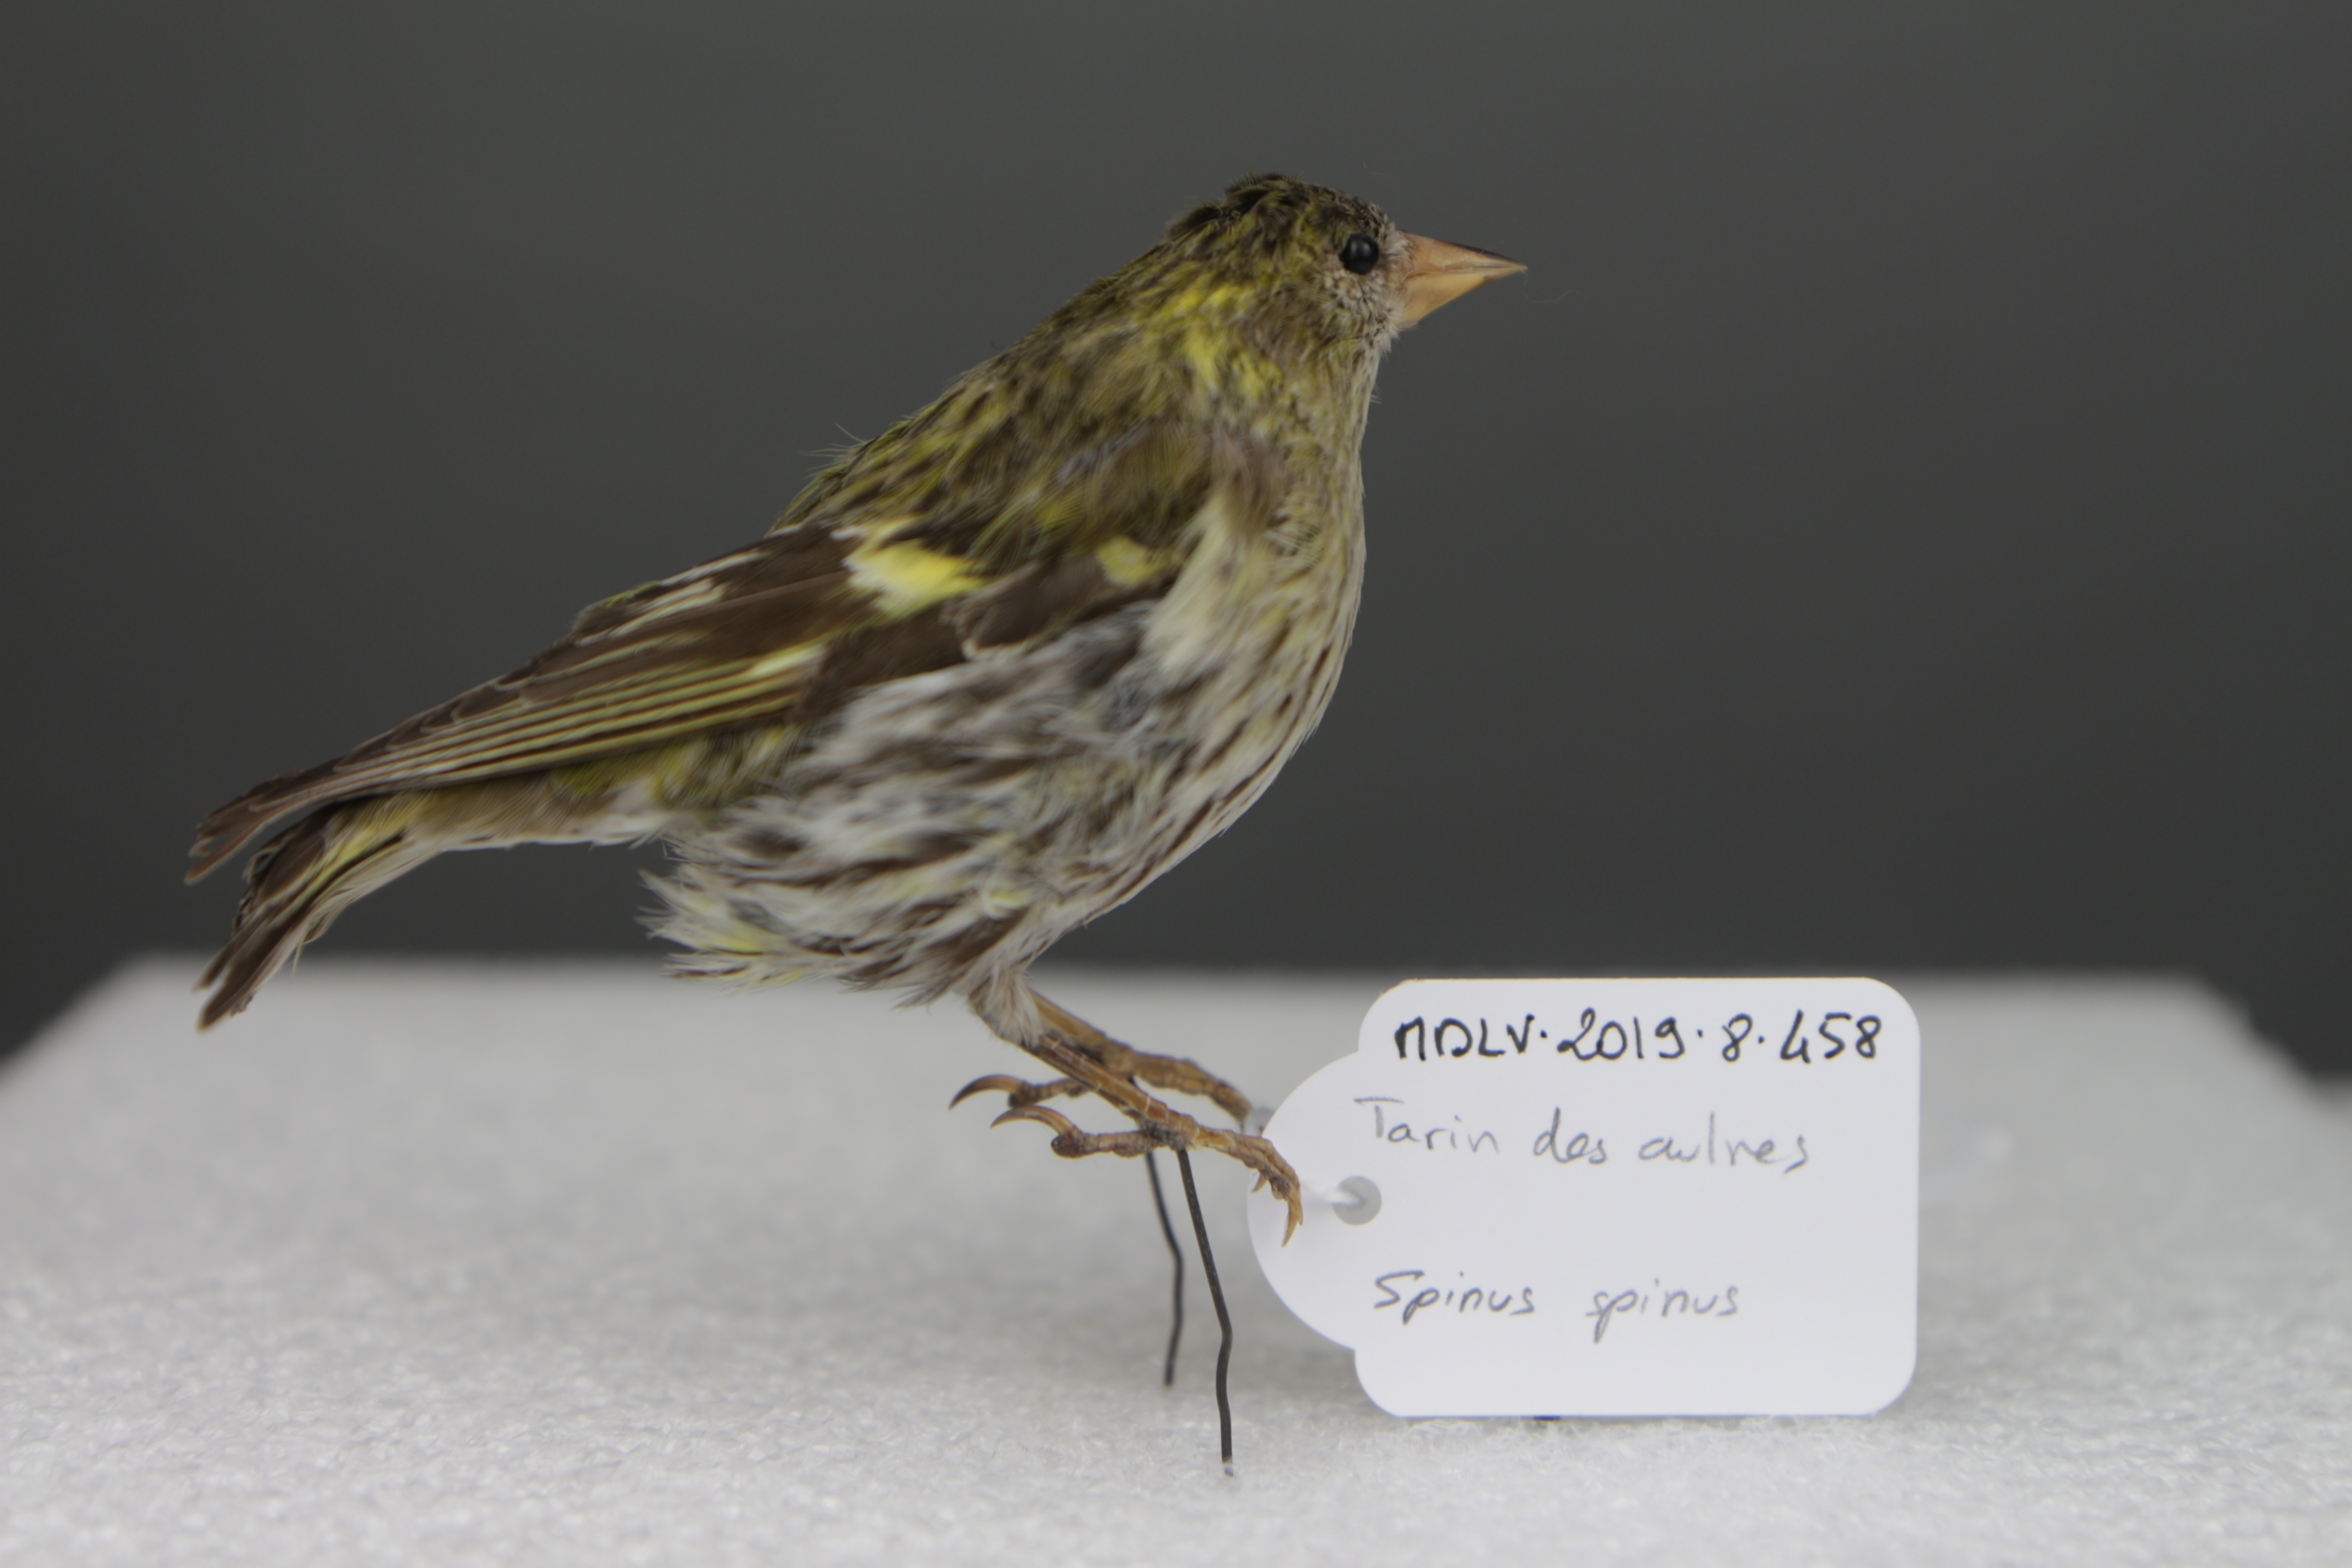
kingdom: Animalia
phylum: Chordata
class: Aves
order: Passeriformes
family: Fringillidae
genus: Spinus
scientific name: Spinus spinus
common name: Eurasian siskin
